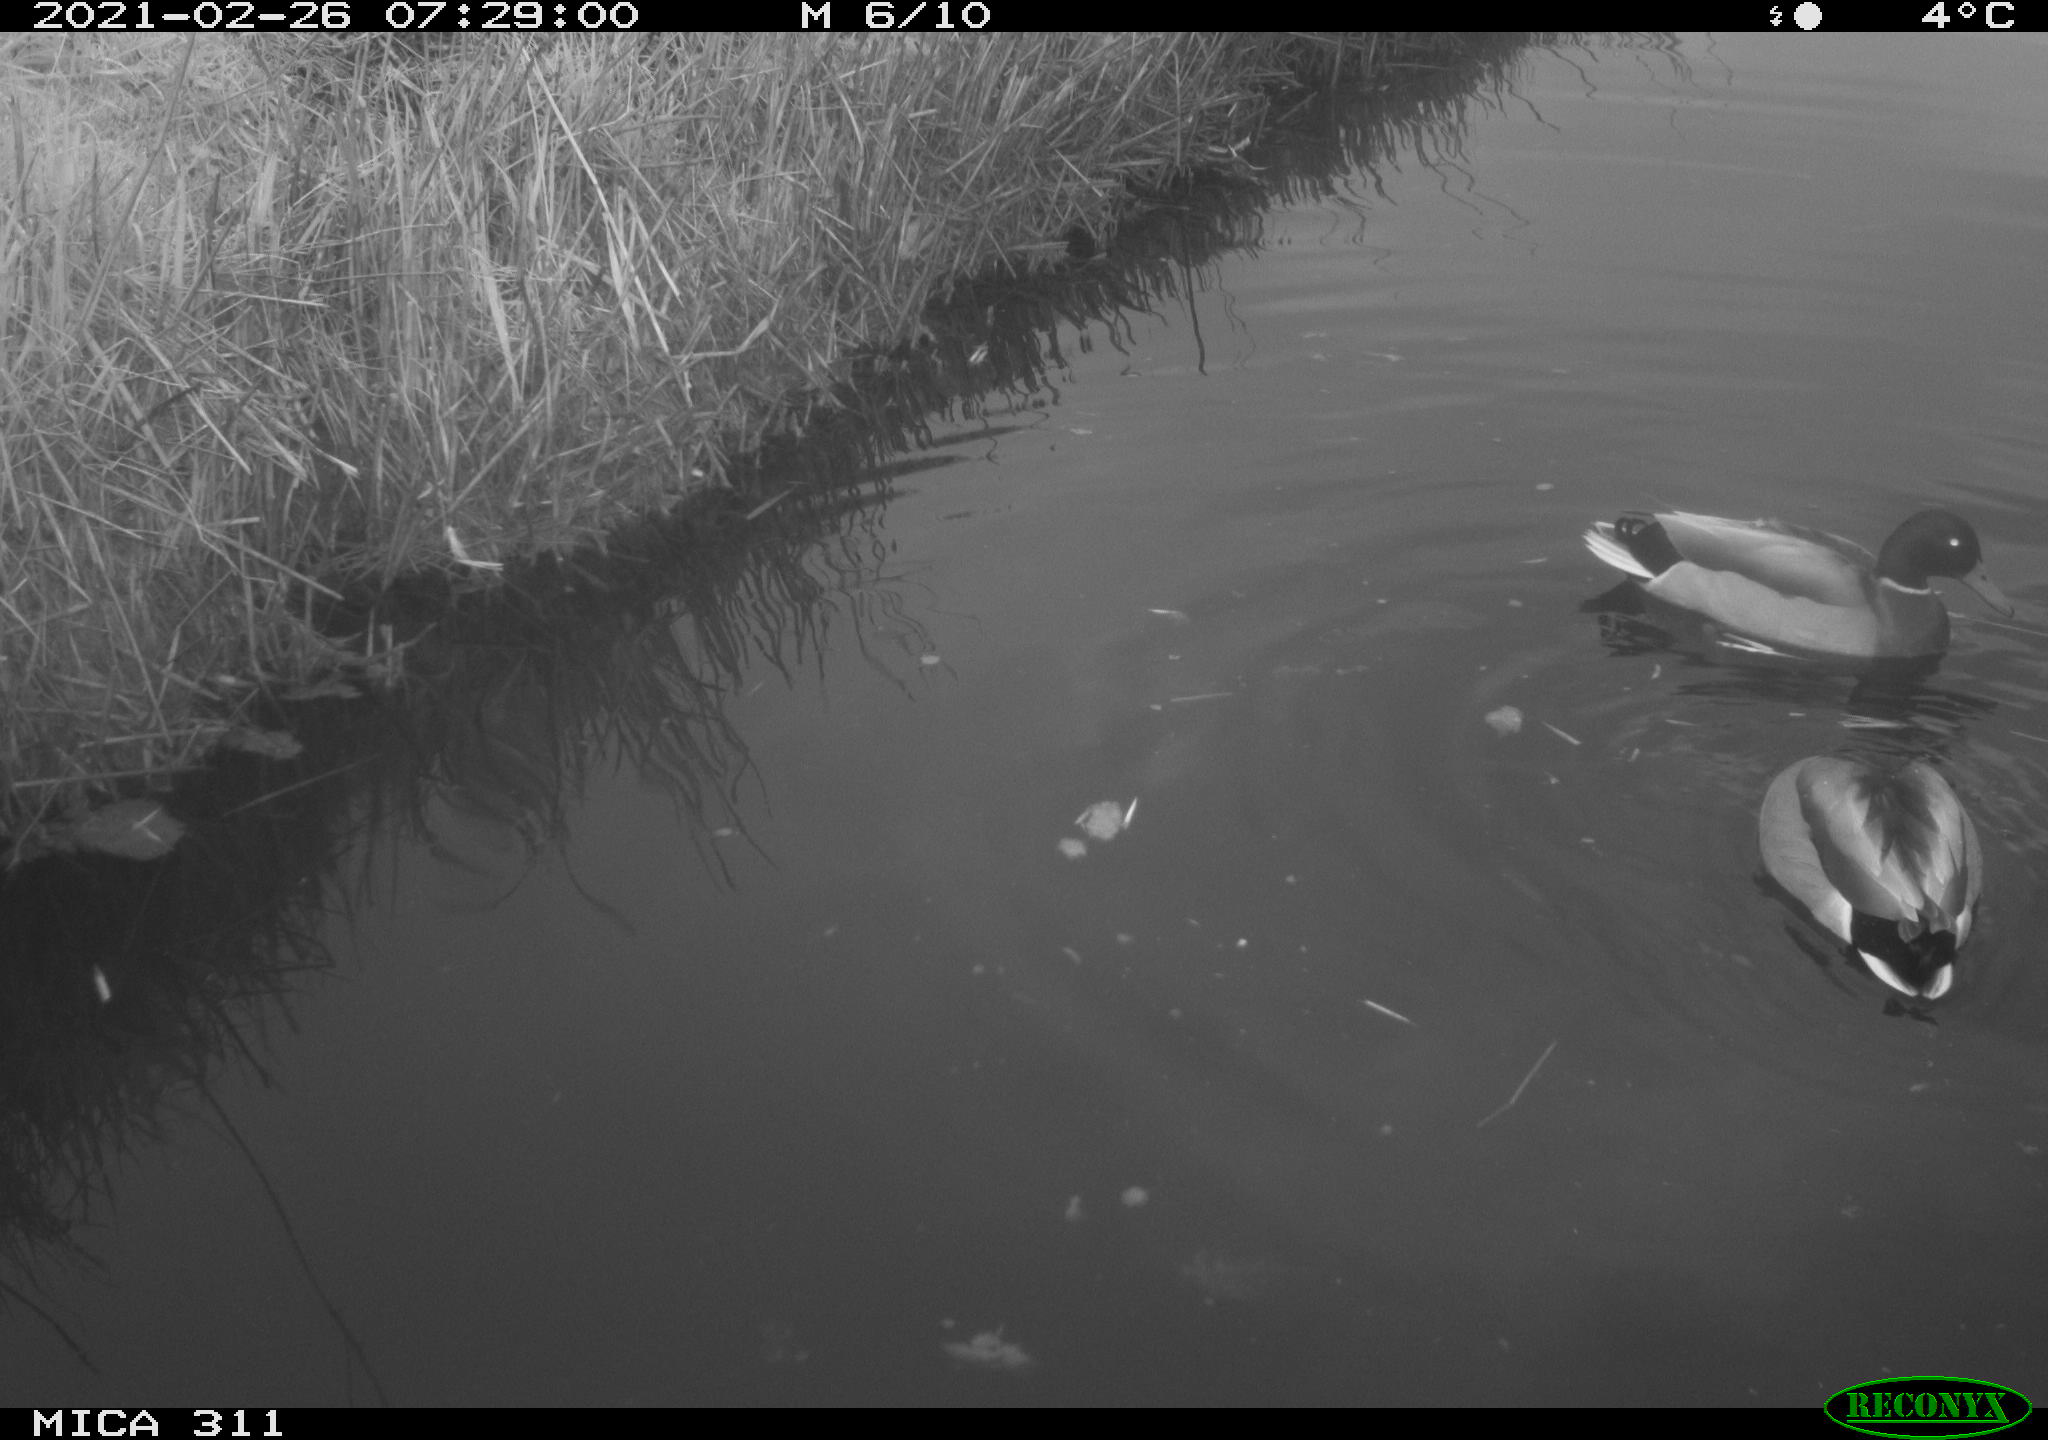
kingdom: Animalia
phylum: Chordata
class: Aves
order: Anseriformes
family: Anatidae
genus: Anas
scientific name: Anas
